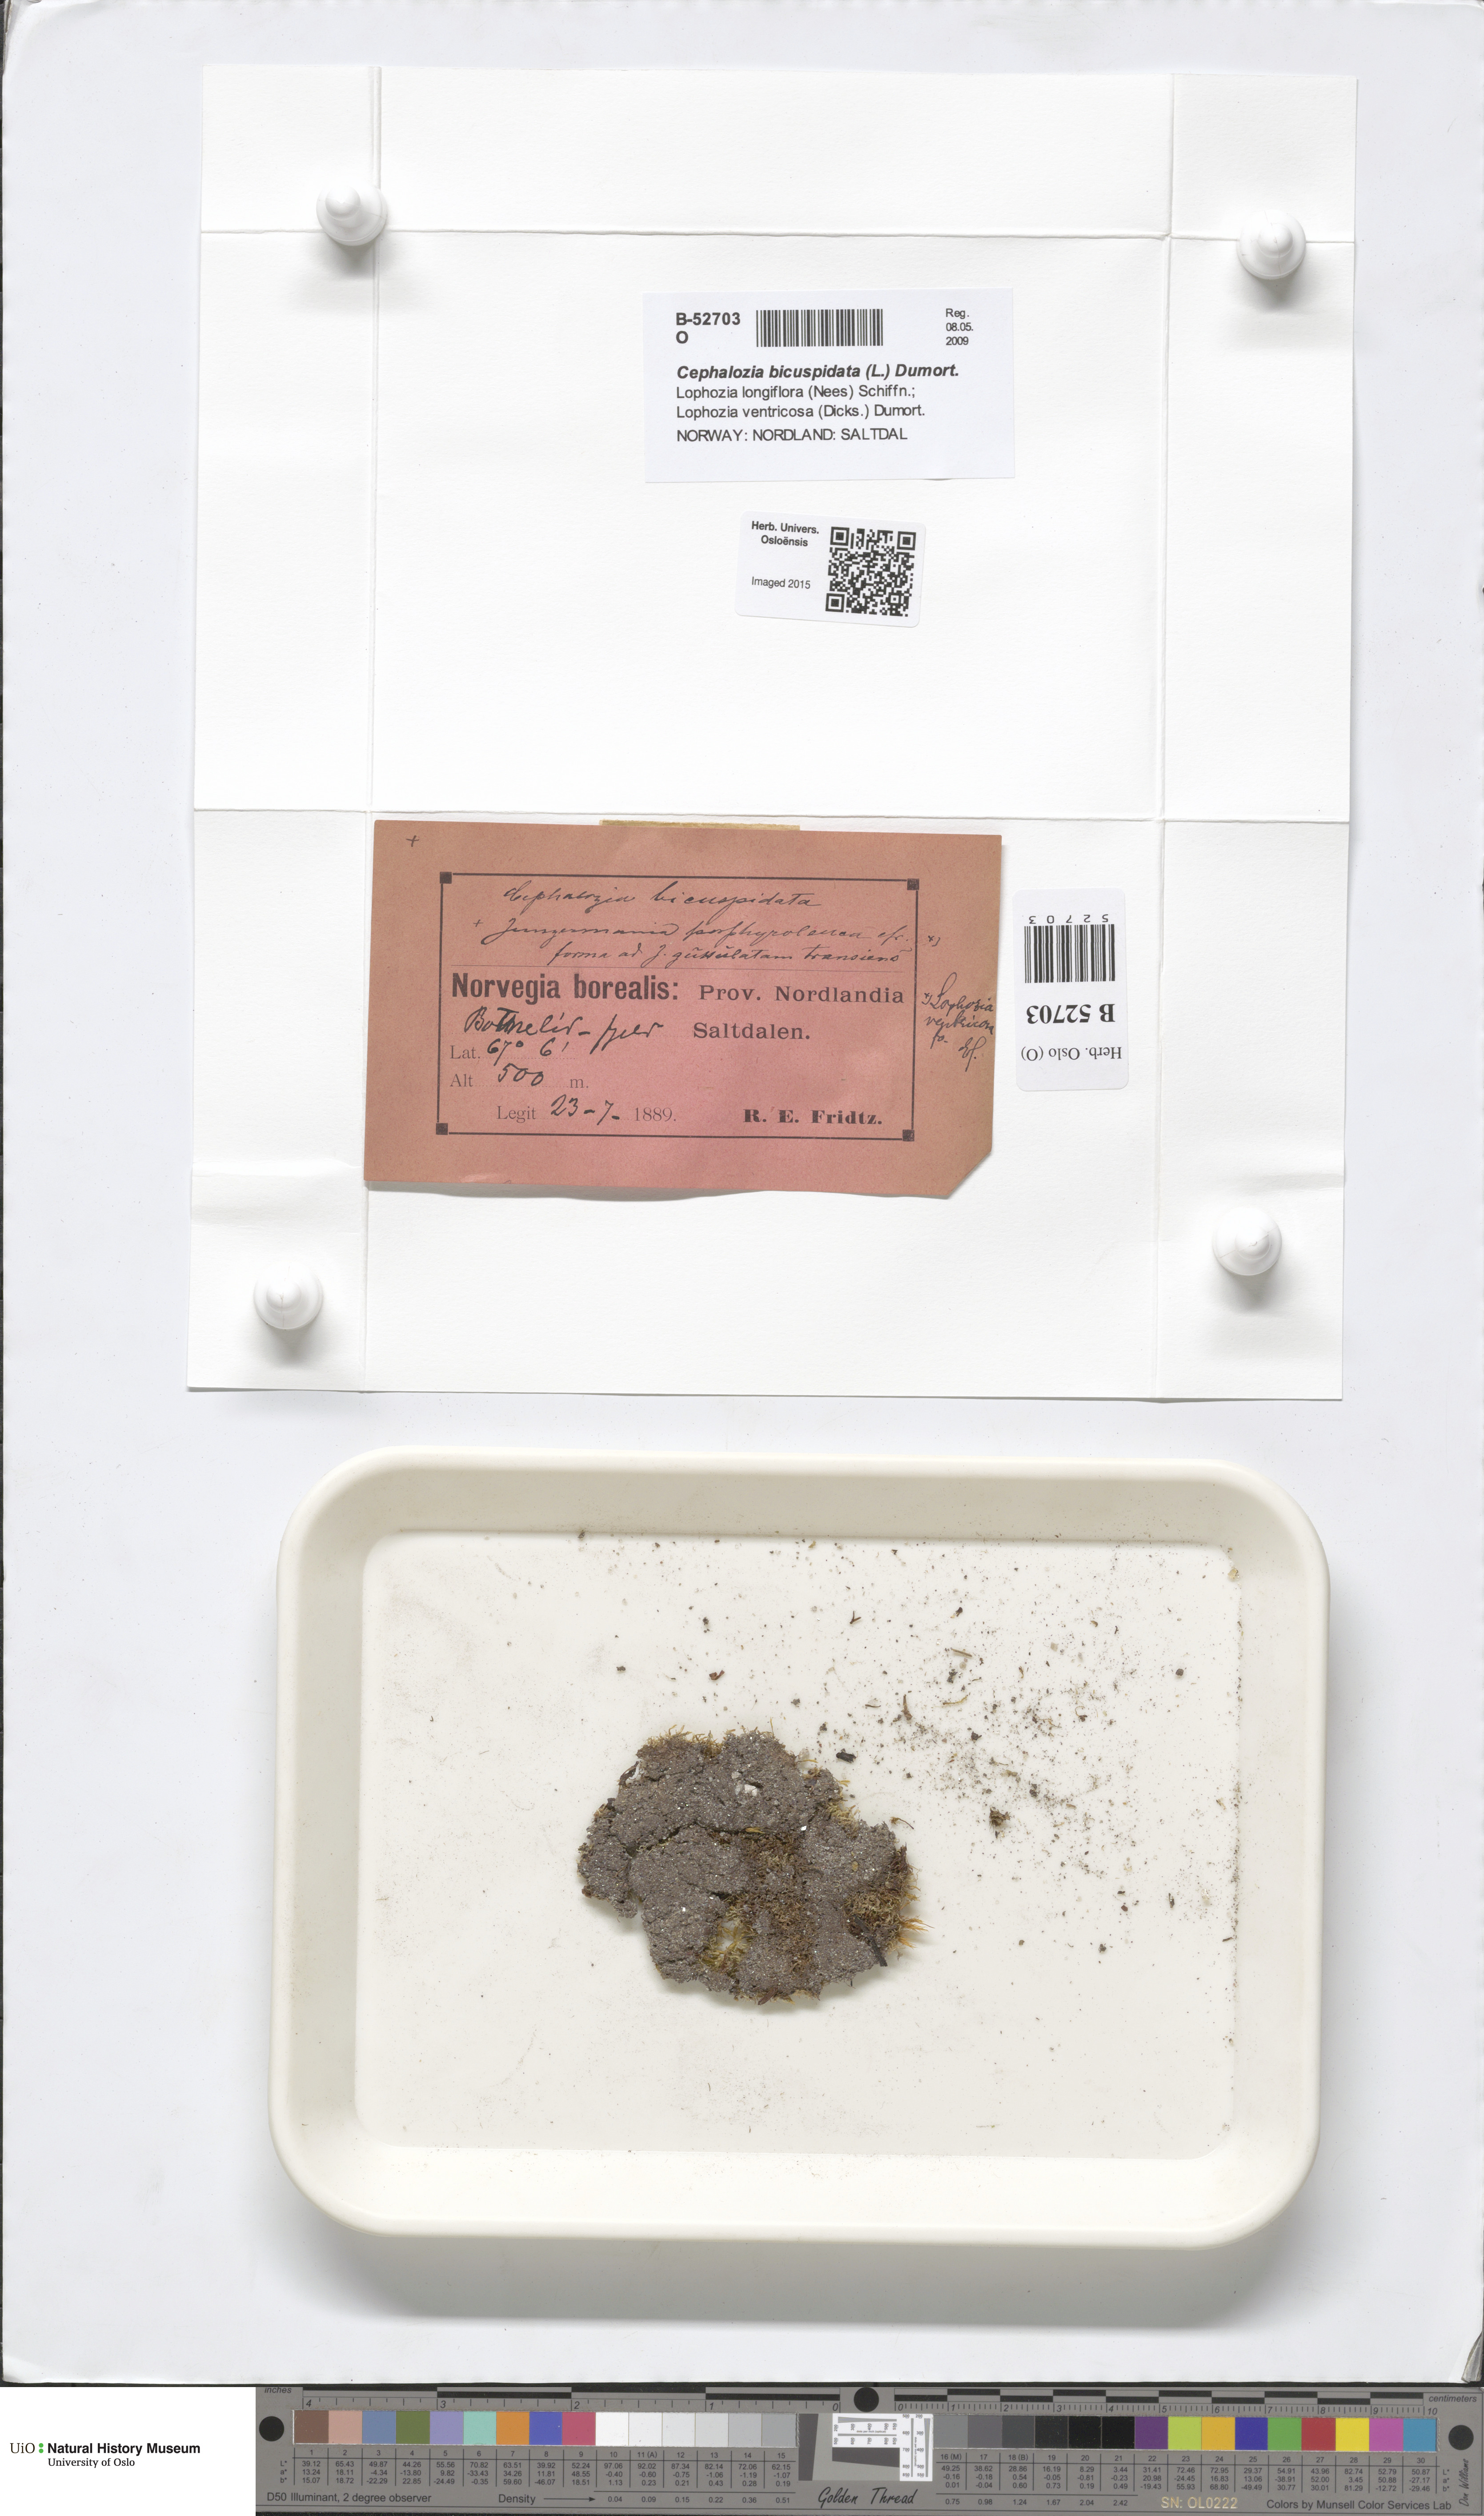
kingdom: Plantae
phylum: Marchantiophyta
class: Jungermanniopsida
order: Jungermanniales
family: Cephaloziaceae
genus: Cephalozia
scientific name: Cephalozia bicuspidata
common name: Two-horned pincerwort
